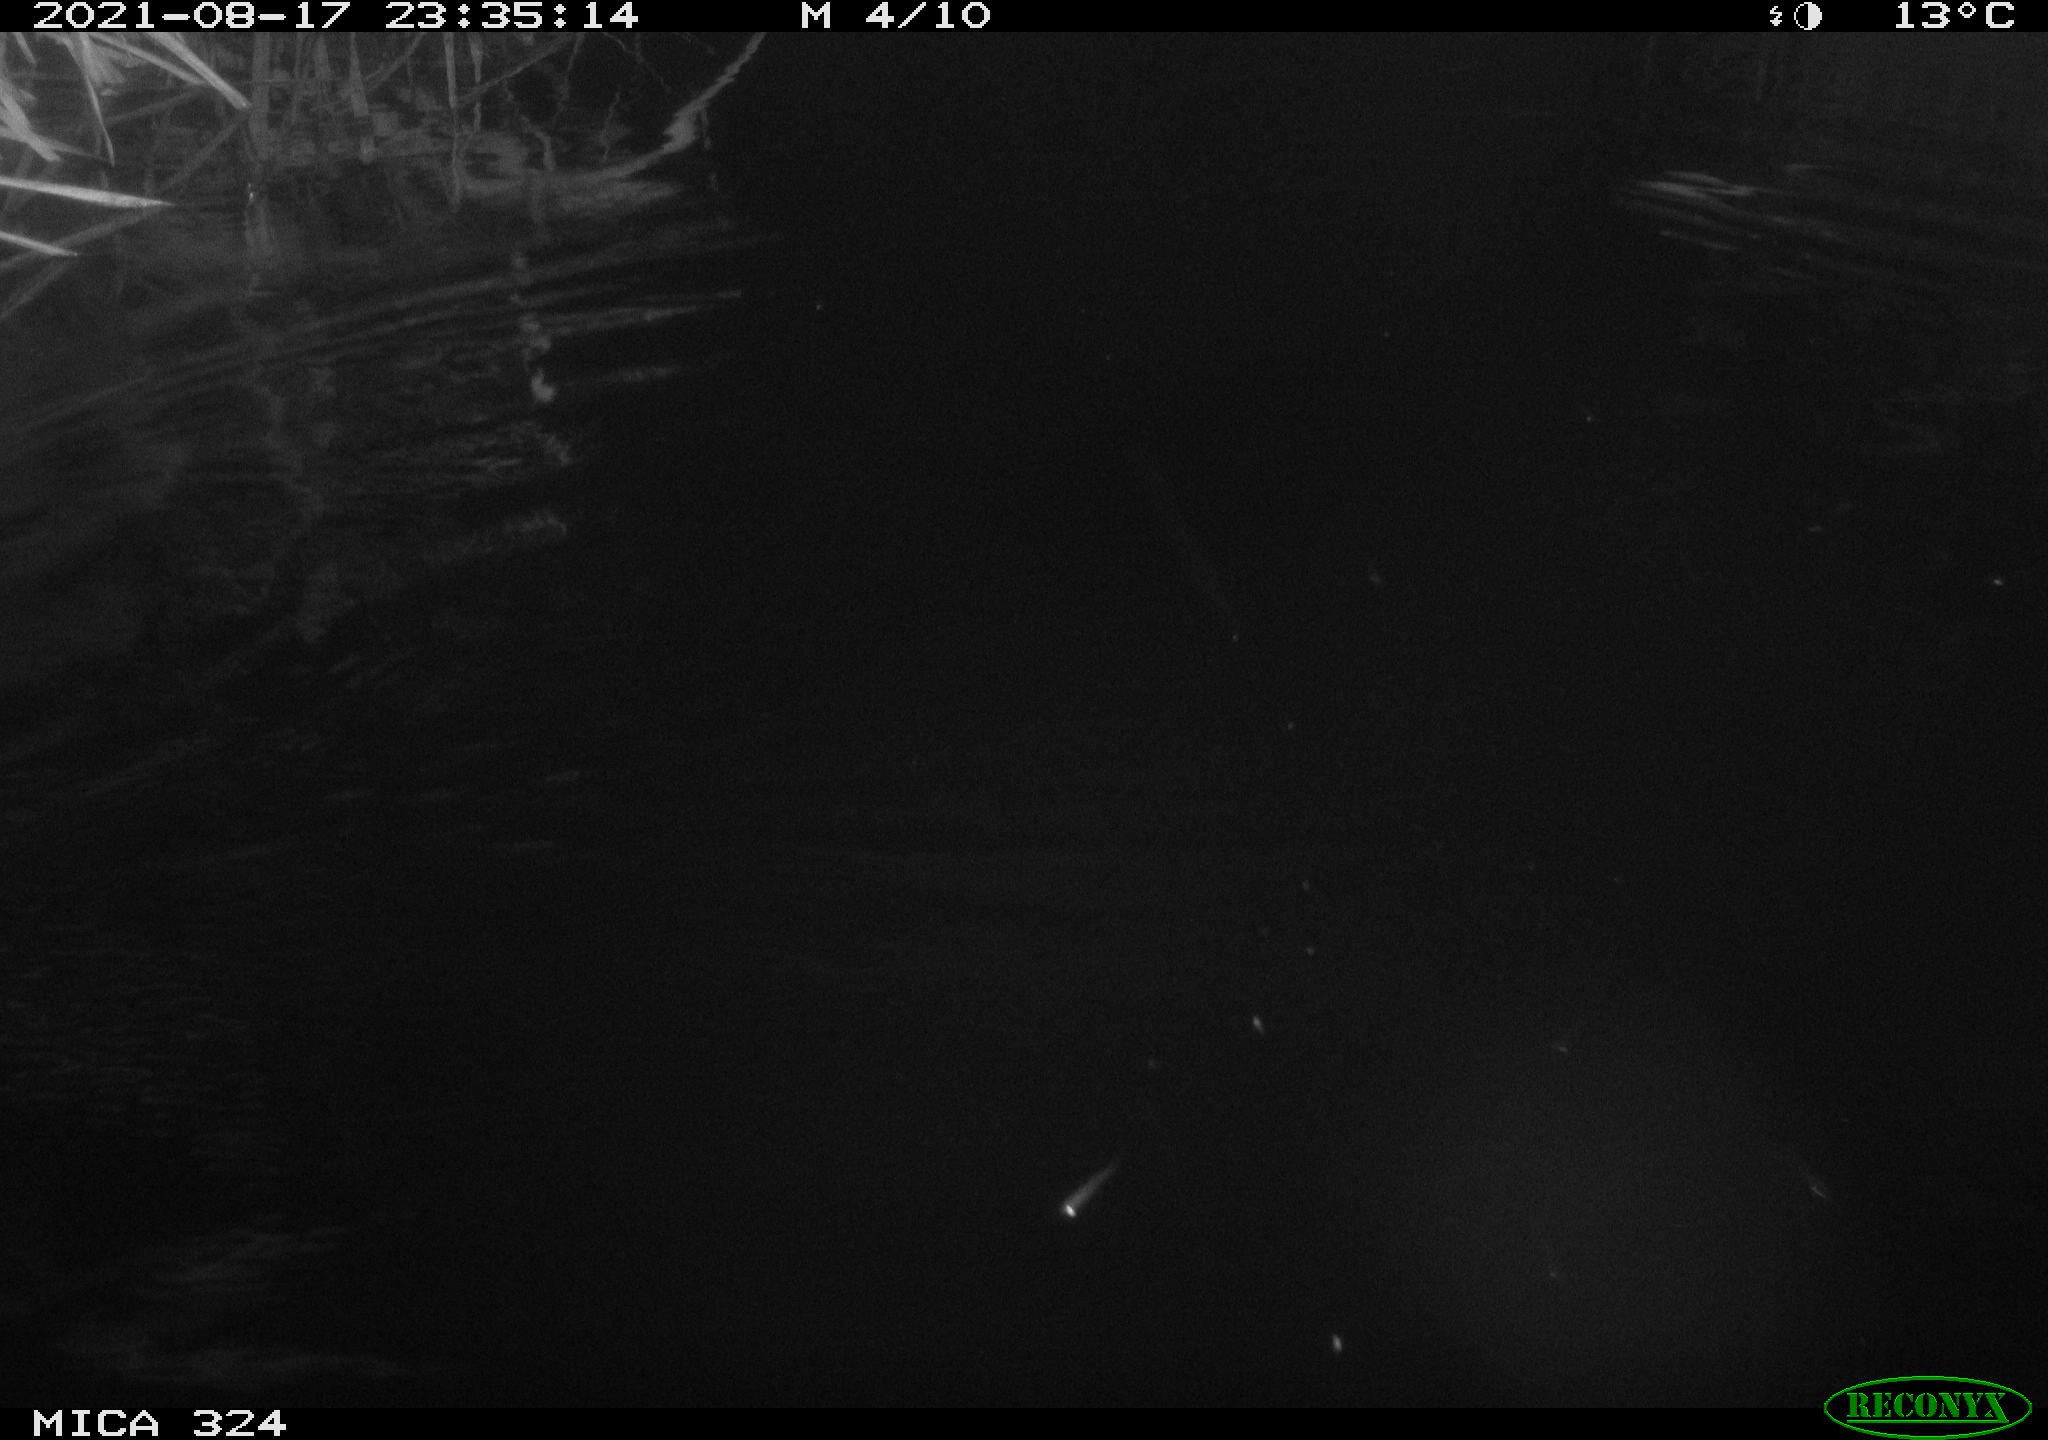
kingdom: Animalia
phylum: Chordata
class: Mammalia
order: Rodentia
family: Cricetidae
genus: Ondatra
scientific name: Ondatra zibethicus
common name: Muskrat
